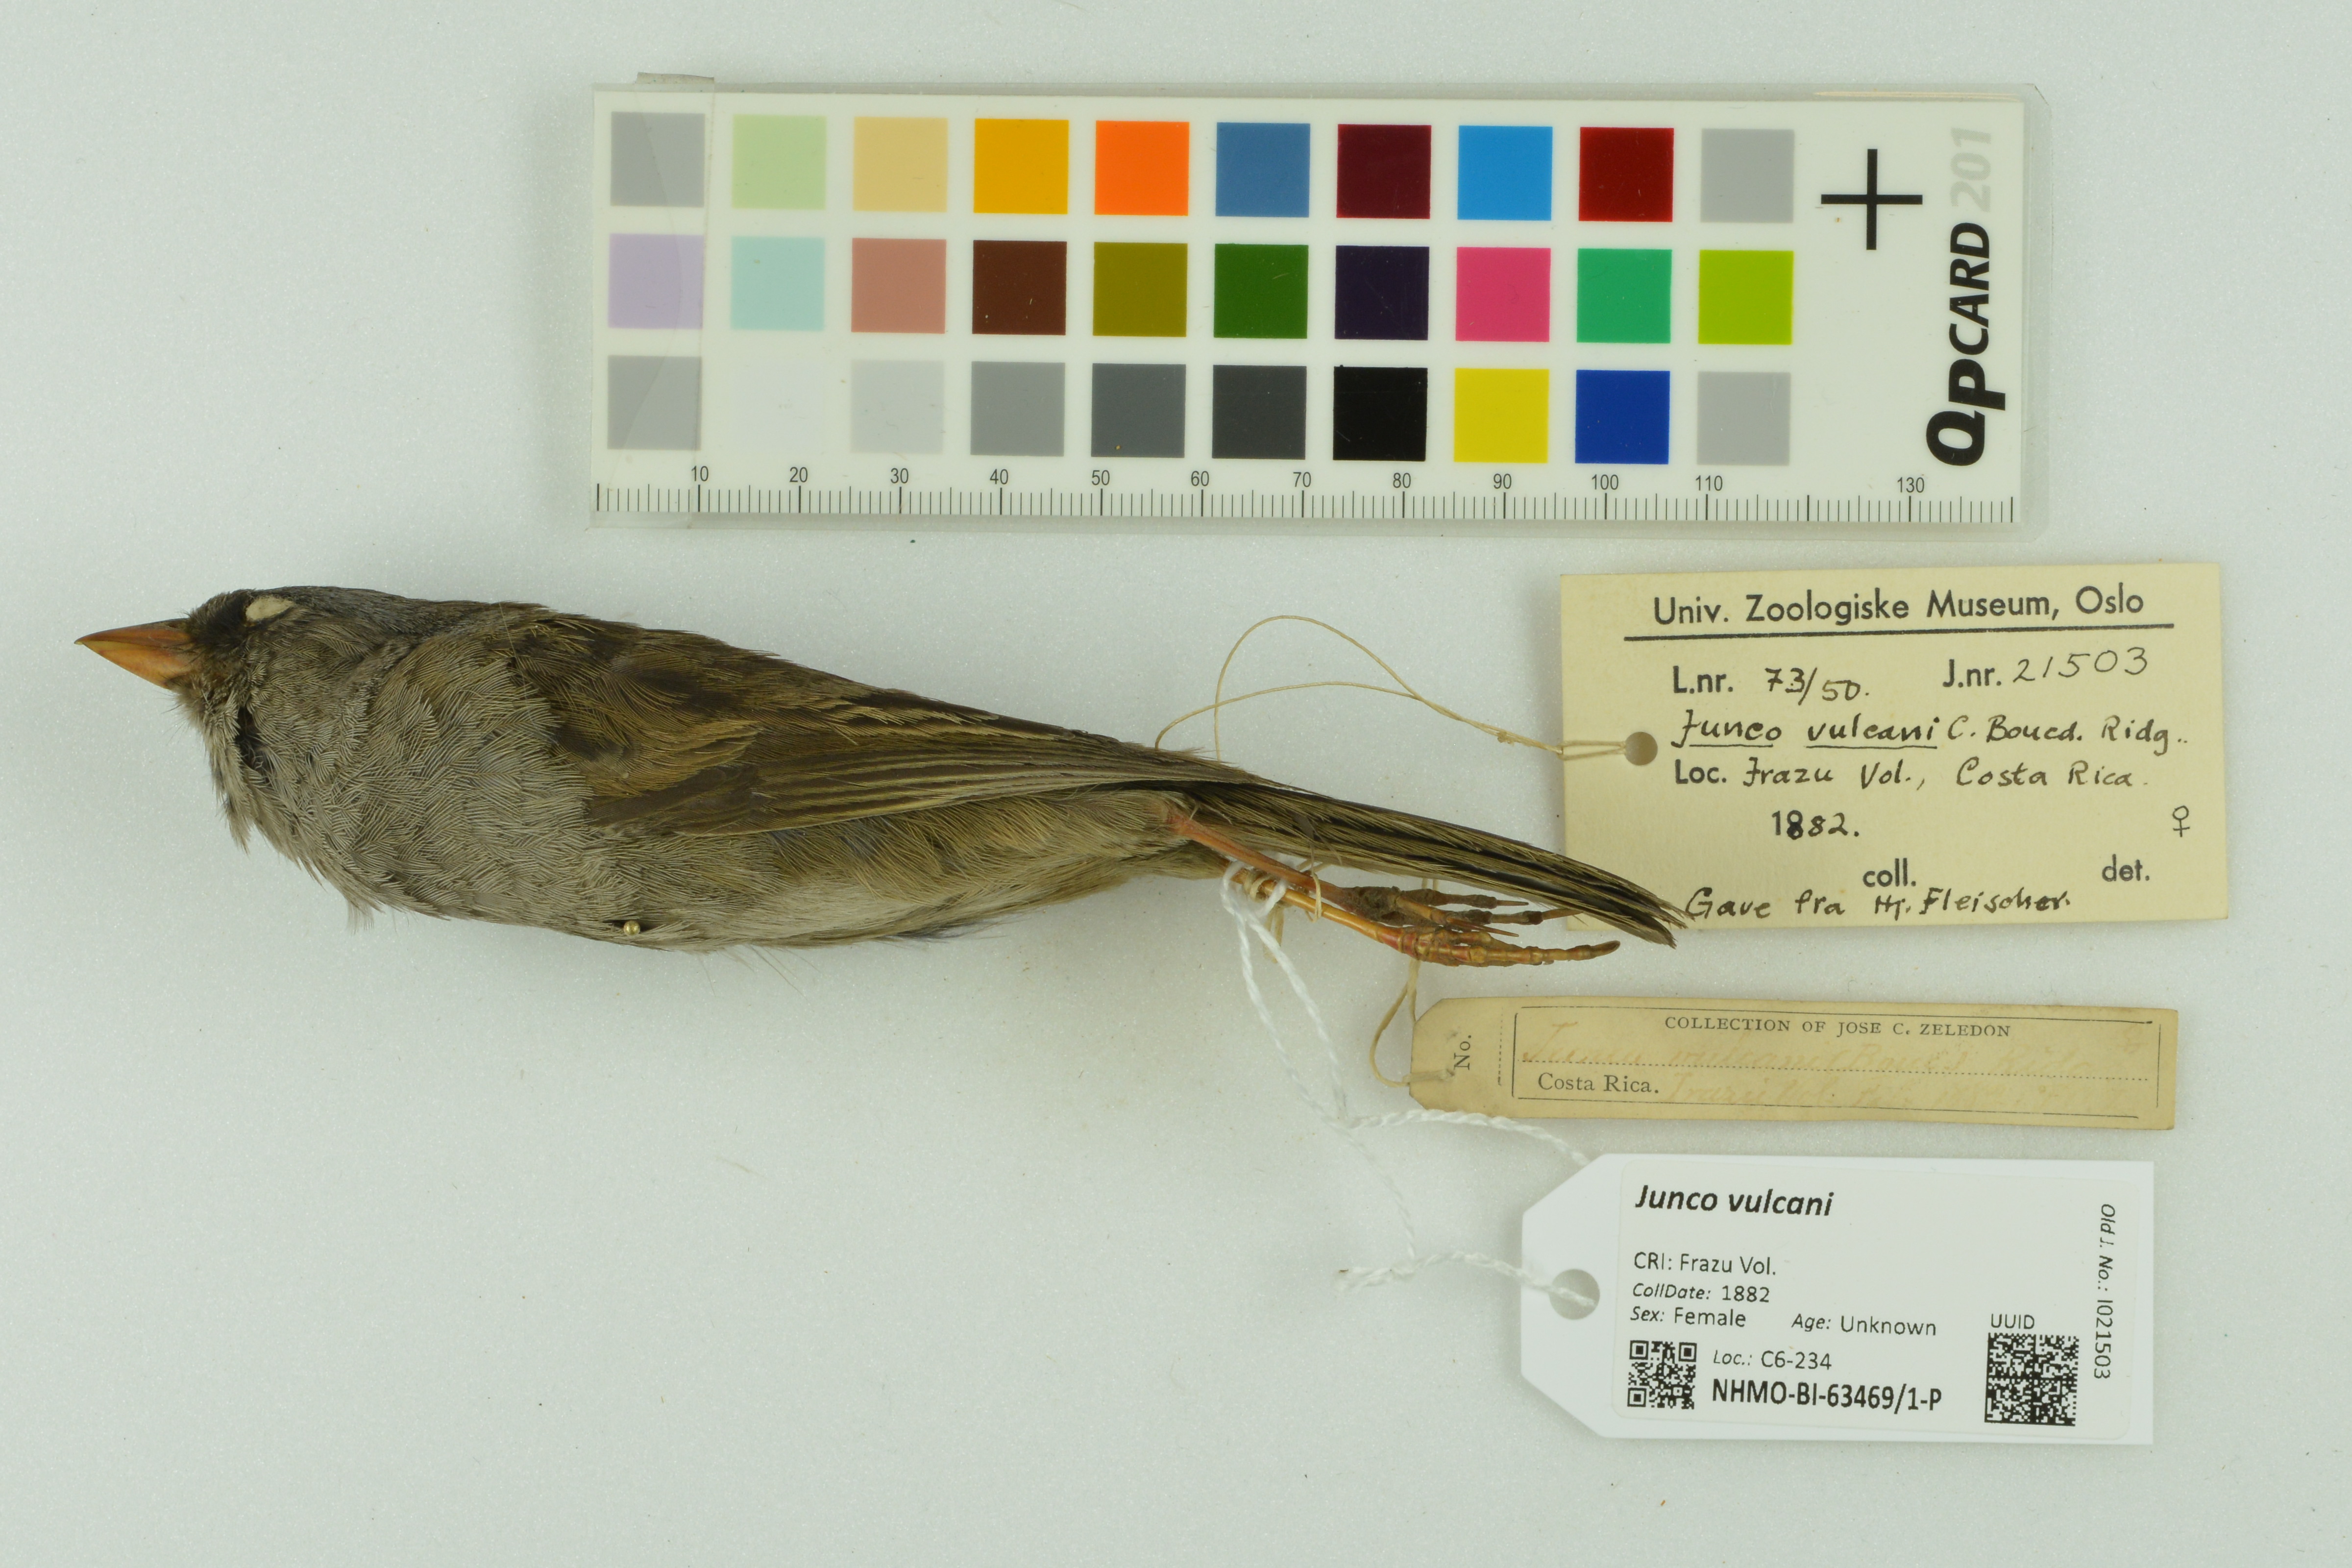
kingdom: Animalia
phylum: Chordata
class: Aves
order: Passeriformes
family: Passerellidae
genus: Junco
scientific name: Junco vulcani
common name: Volcano junco
